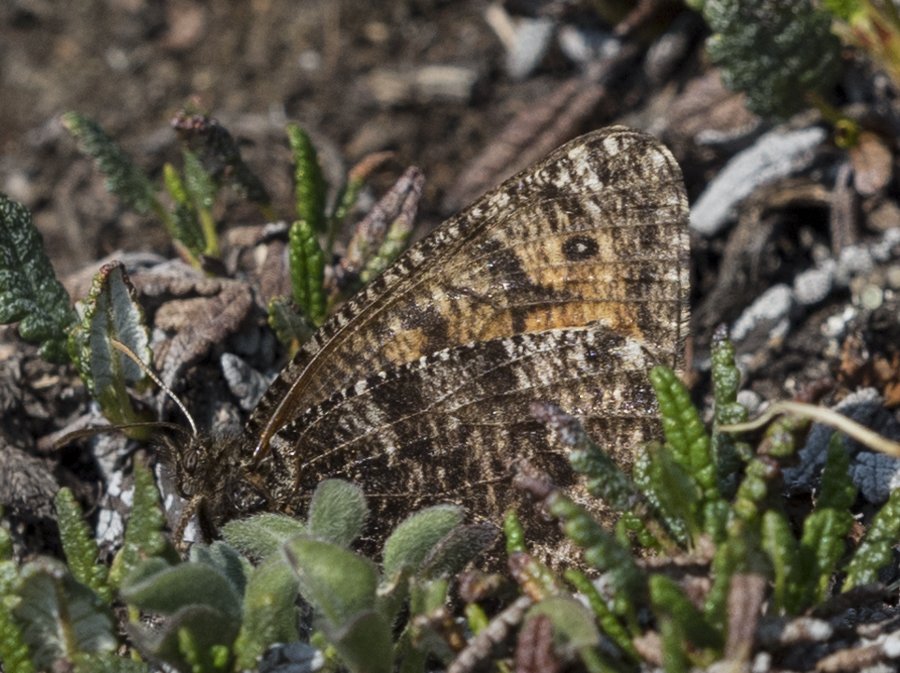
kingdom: Animalia
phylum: Arthropoda
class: Insecta
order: Lepidoptera
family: Nymphalidae
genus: Oeneis
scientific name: Oeneis chryxus
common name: Chryxus Arctic
